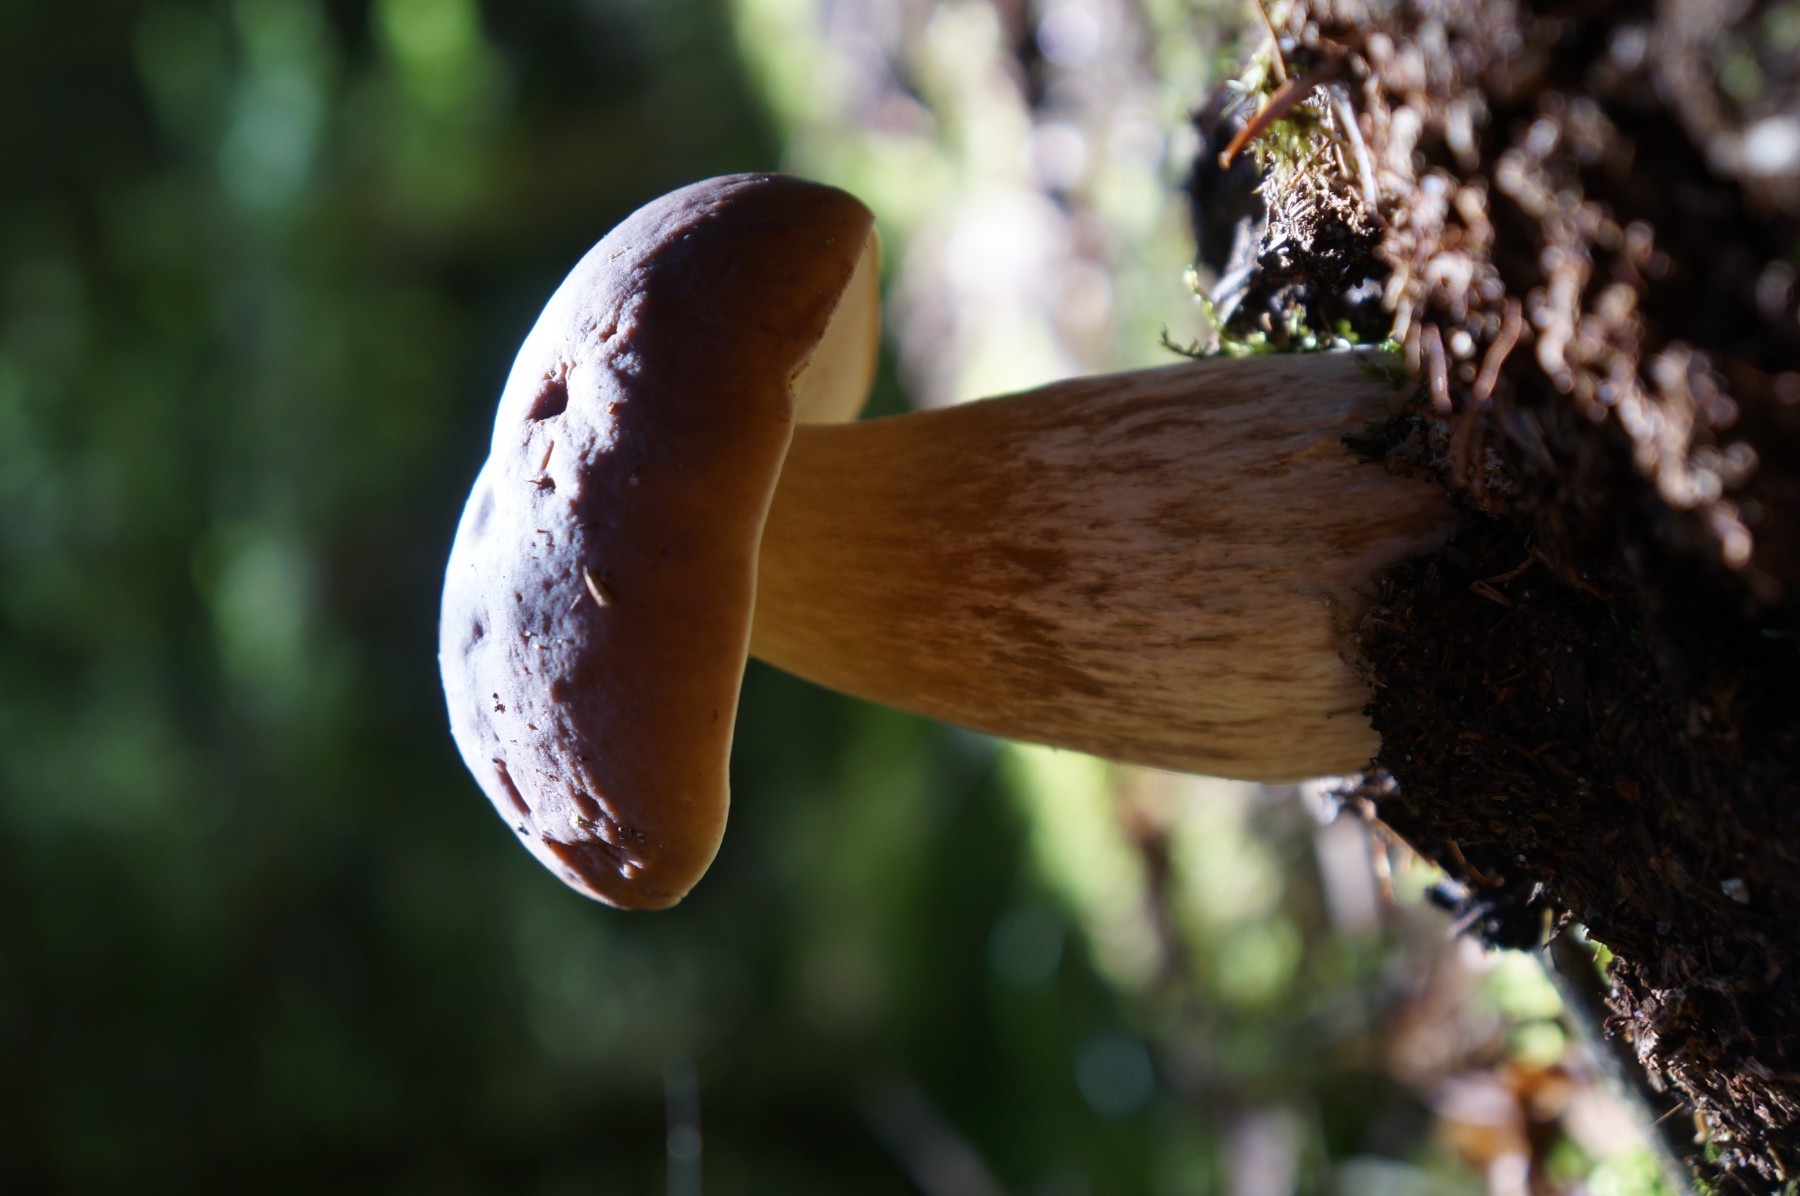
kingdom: Fungi
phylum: Basidiomycota
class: Agaricomycetes
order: Boletales
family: Boletaceae
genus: Boletus
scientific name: Boletus edulis
